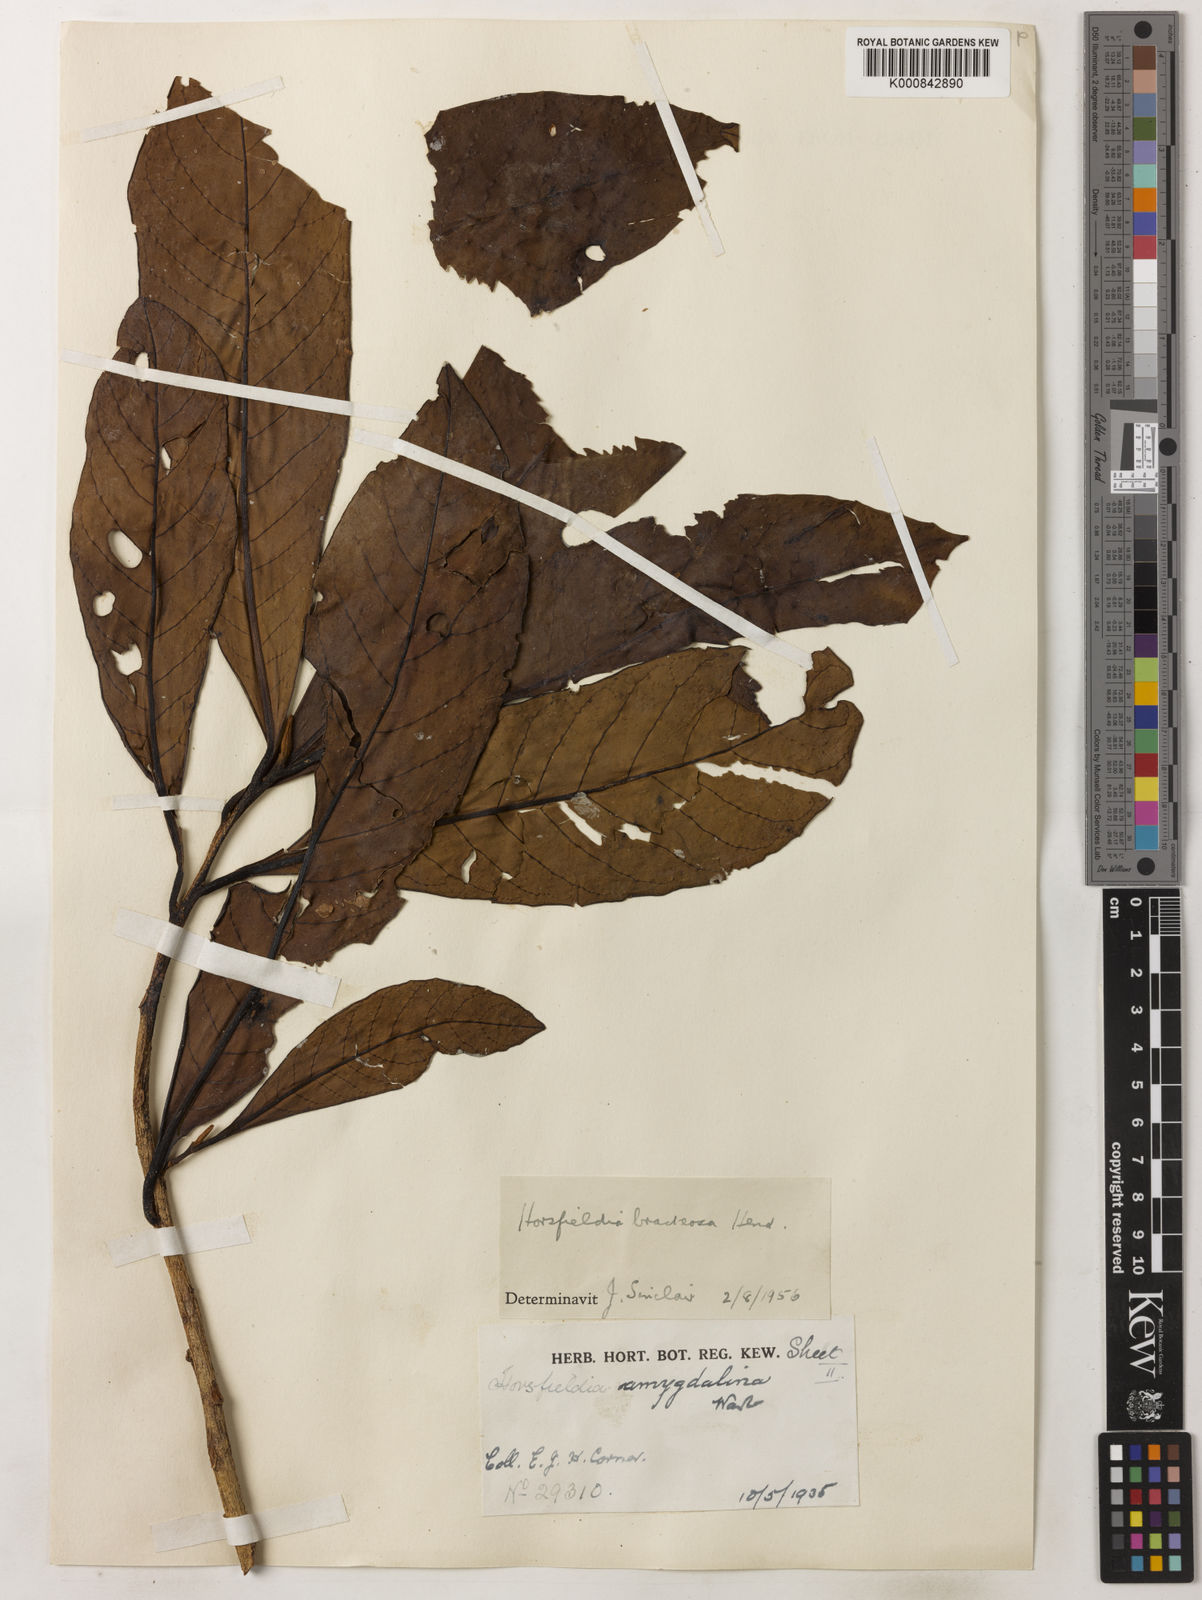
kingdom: Plantae
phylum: Tracheophyta
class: Magnoliopsida
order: Magnoliales
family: Myristicaceae
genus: Horsfieldia
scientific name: Horsfieldia sucosa
